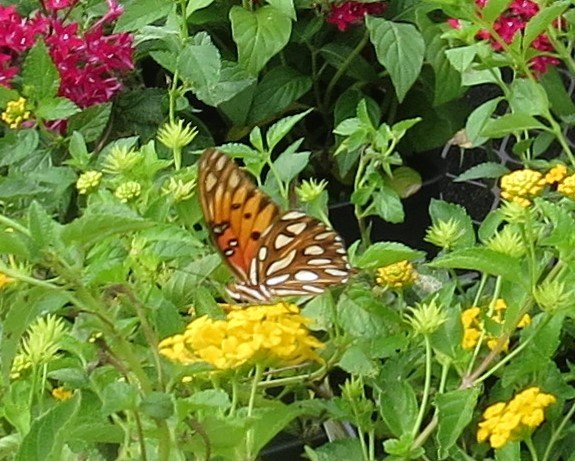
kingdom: Animalia
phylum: Arthropoda
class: Insecta
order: Lepidoptera
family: Nymphalidae
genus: Dione
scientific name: Dione vanillae
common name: Gulf Fritillary
